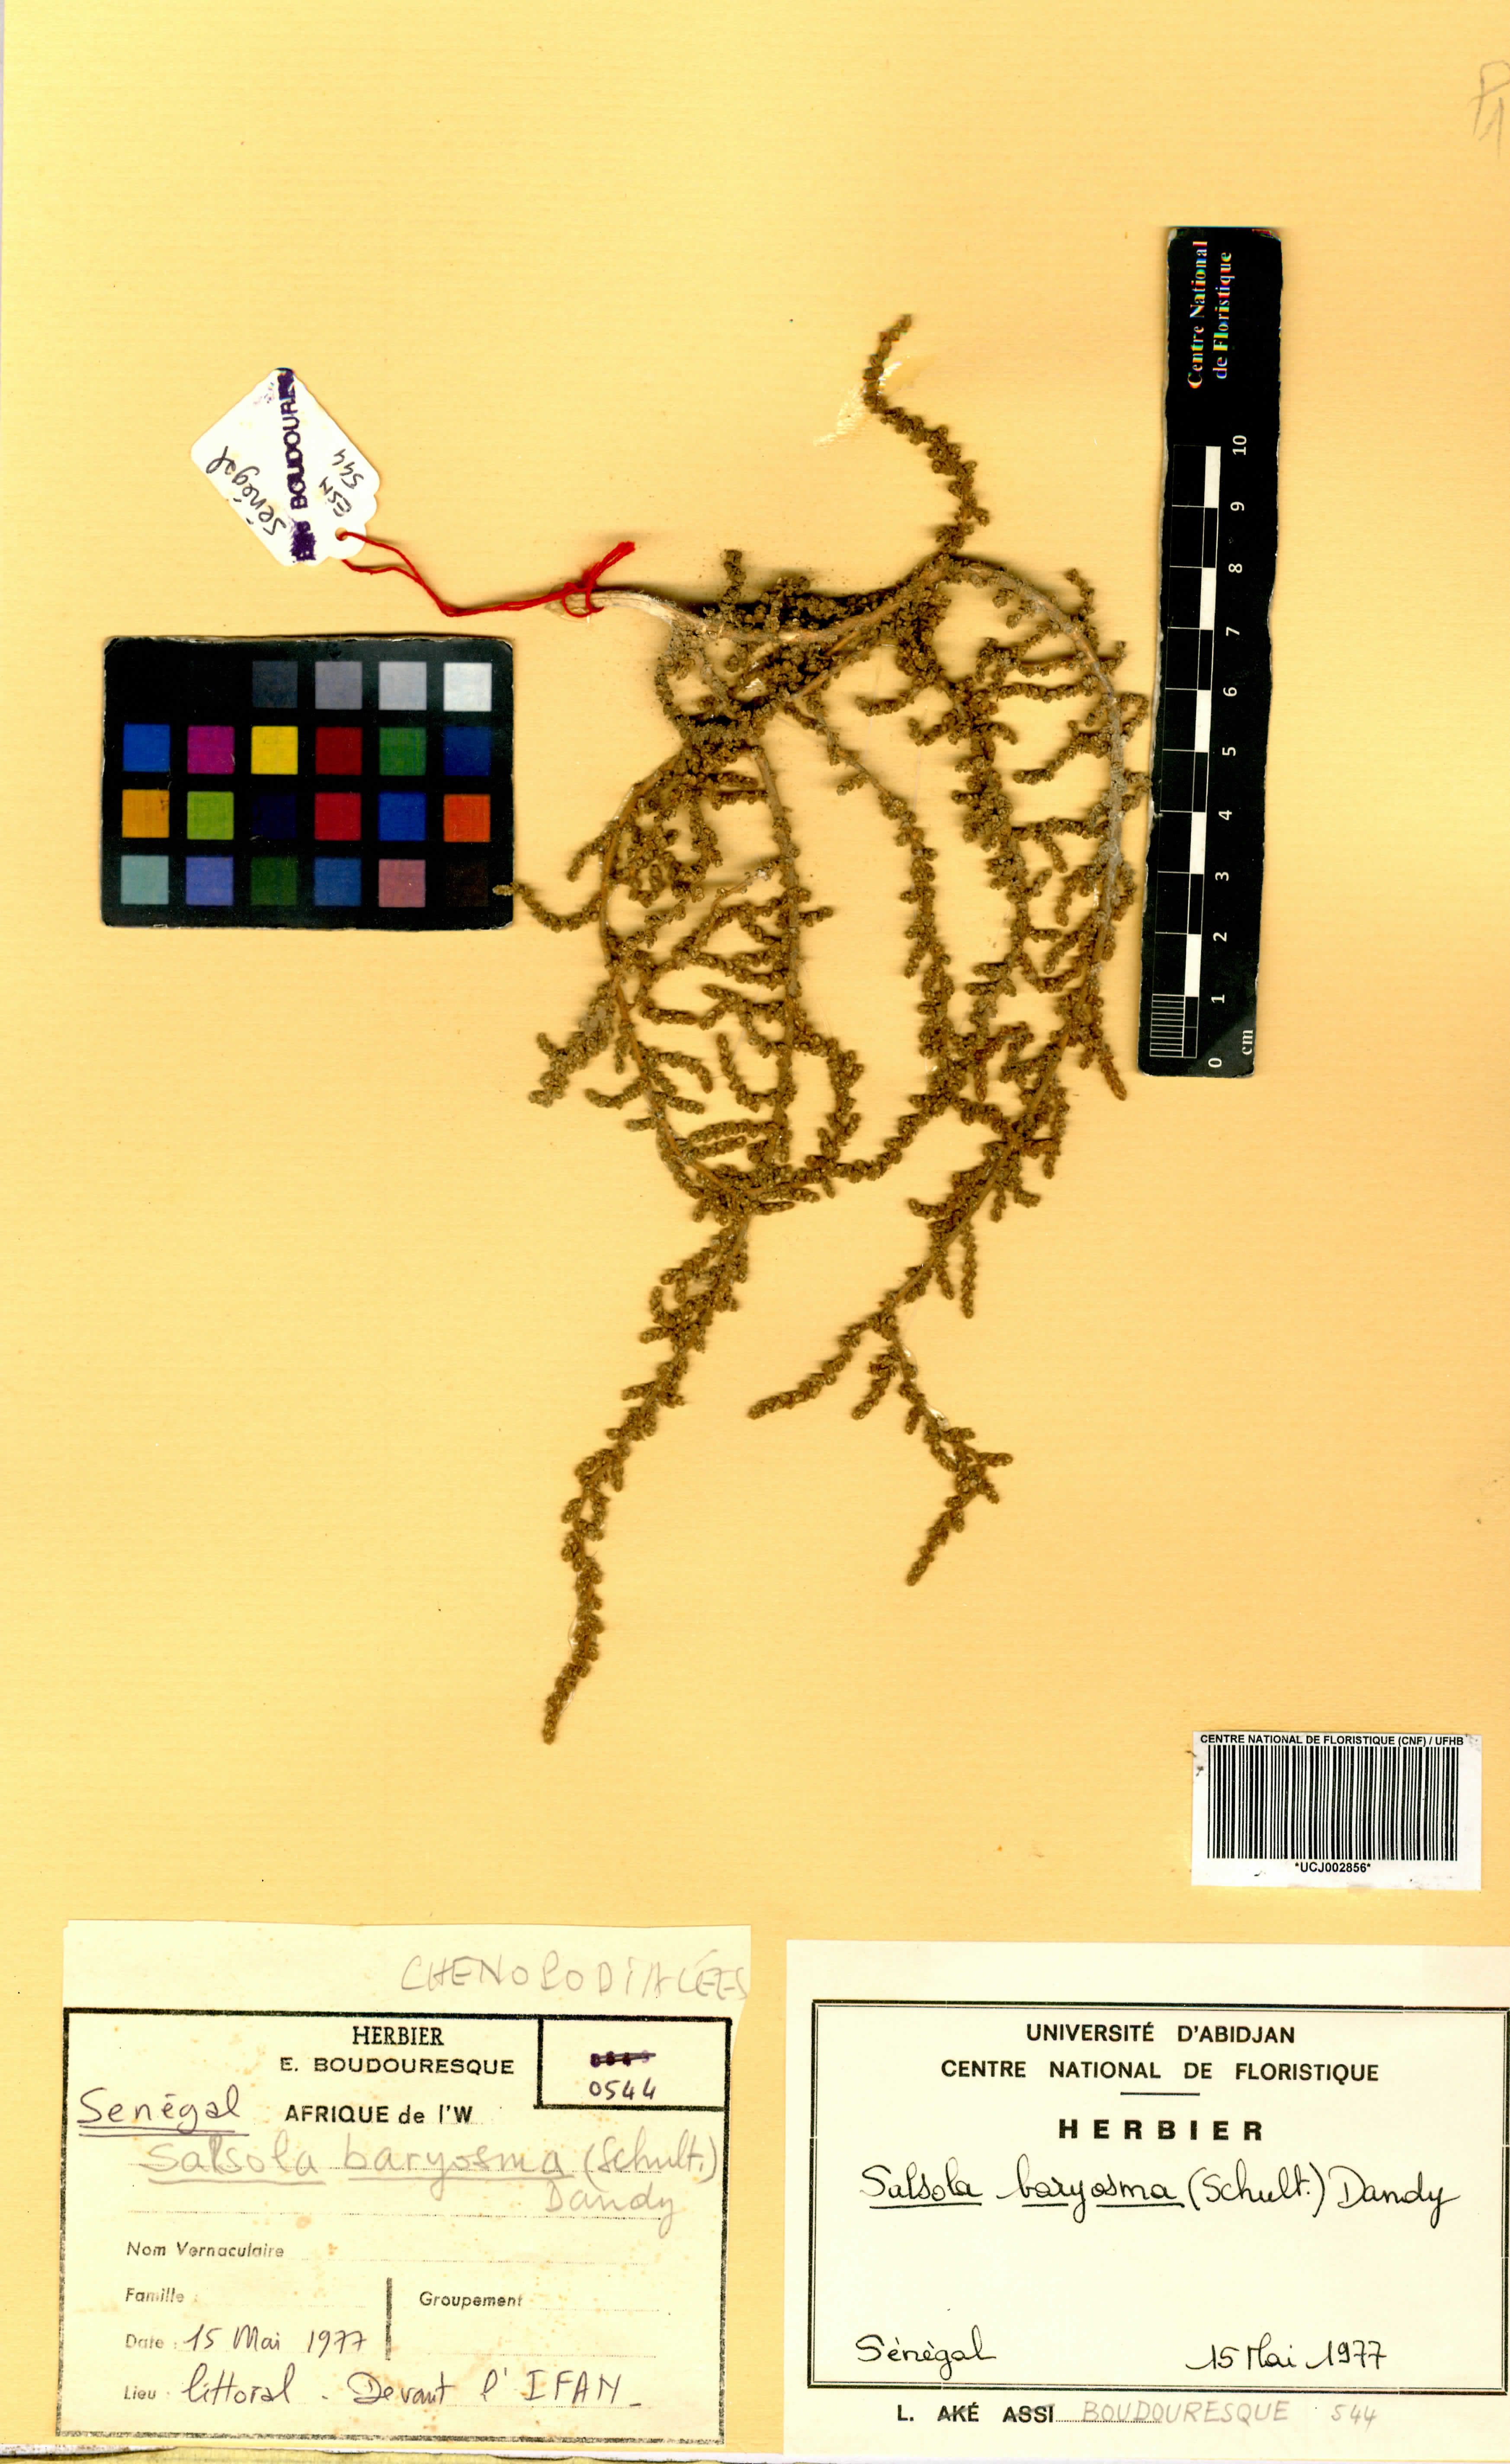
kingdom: Plantae
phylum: Tracheophyta
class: Magnoliopsida
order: Caryophyllales
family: Amaranthaceae
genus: Caroxylon
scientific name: Caroxylon imbricatum
